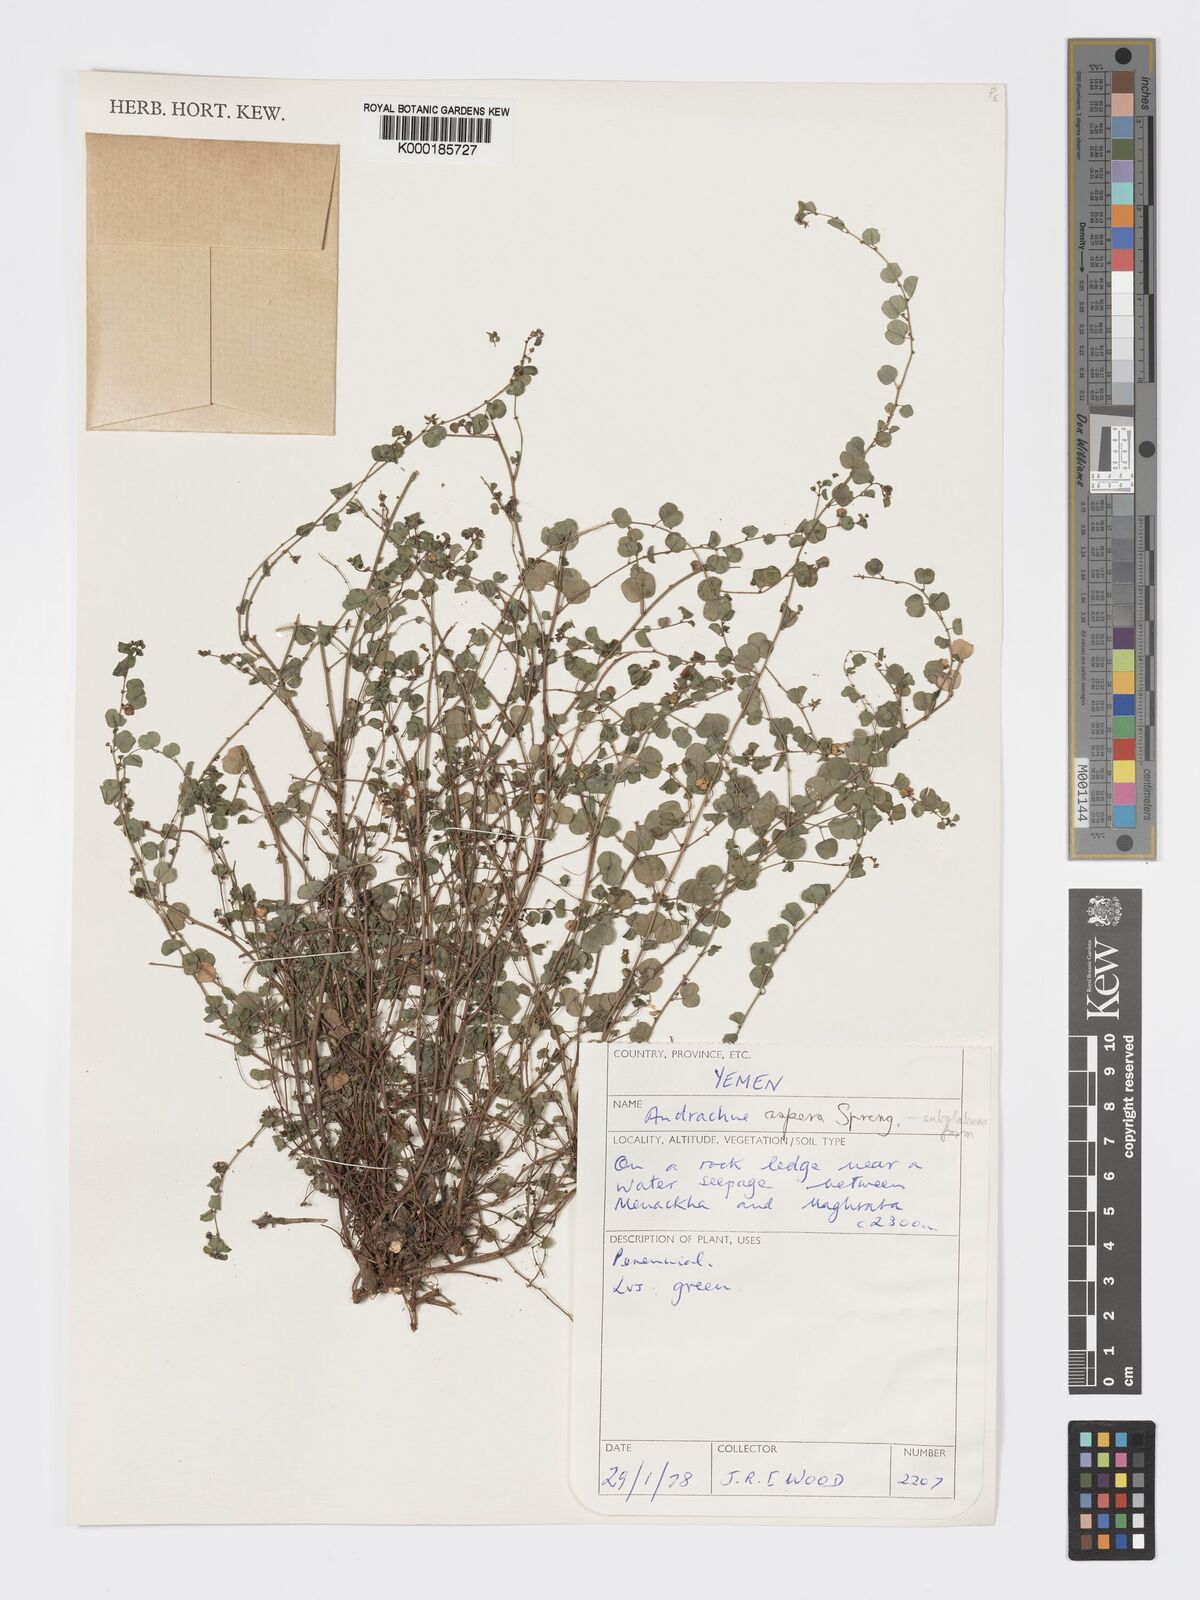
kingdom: Plantae
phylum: Tracheophyta
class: Magnoliopsida
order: Malpighiales
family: Phyllanthaceae
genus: Andrachne
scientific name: Andrachne aspera
